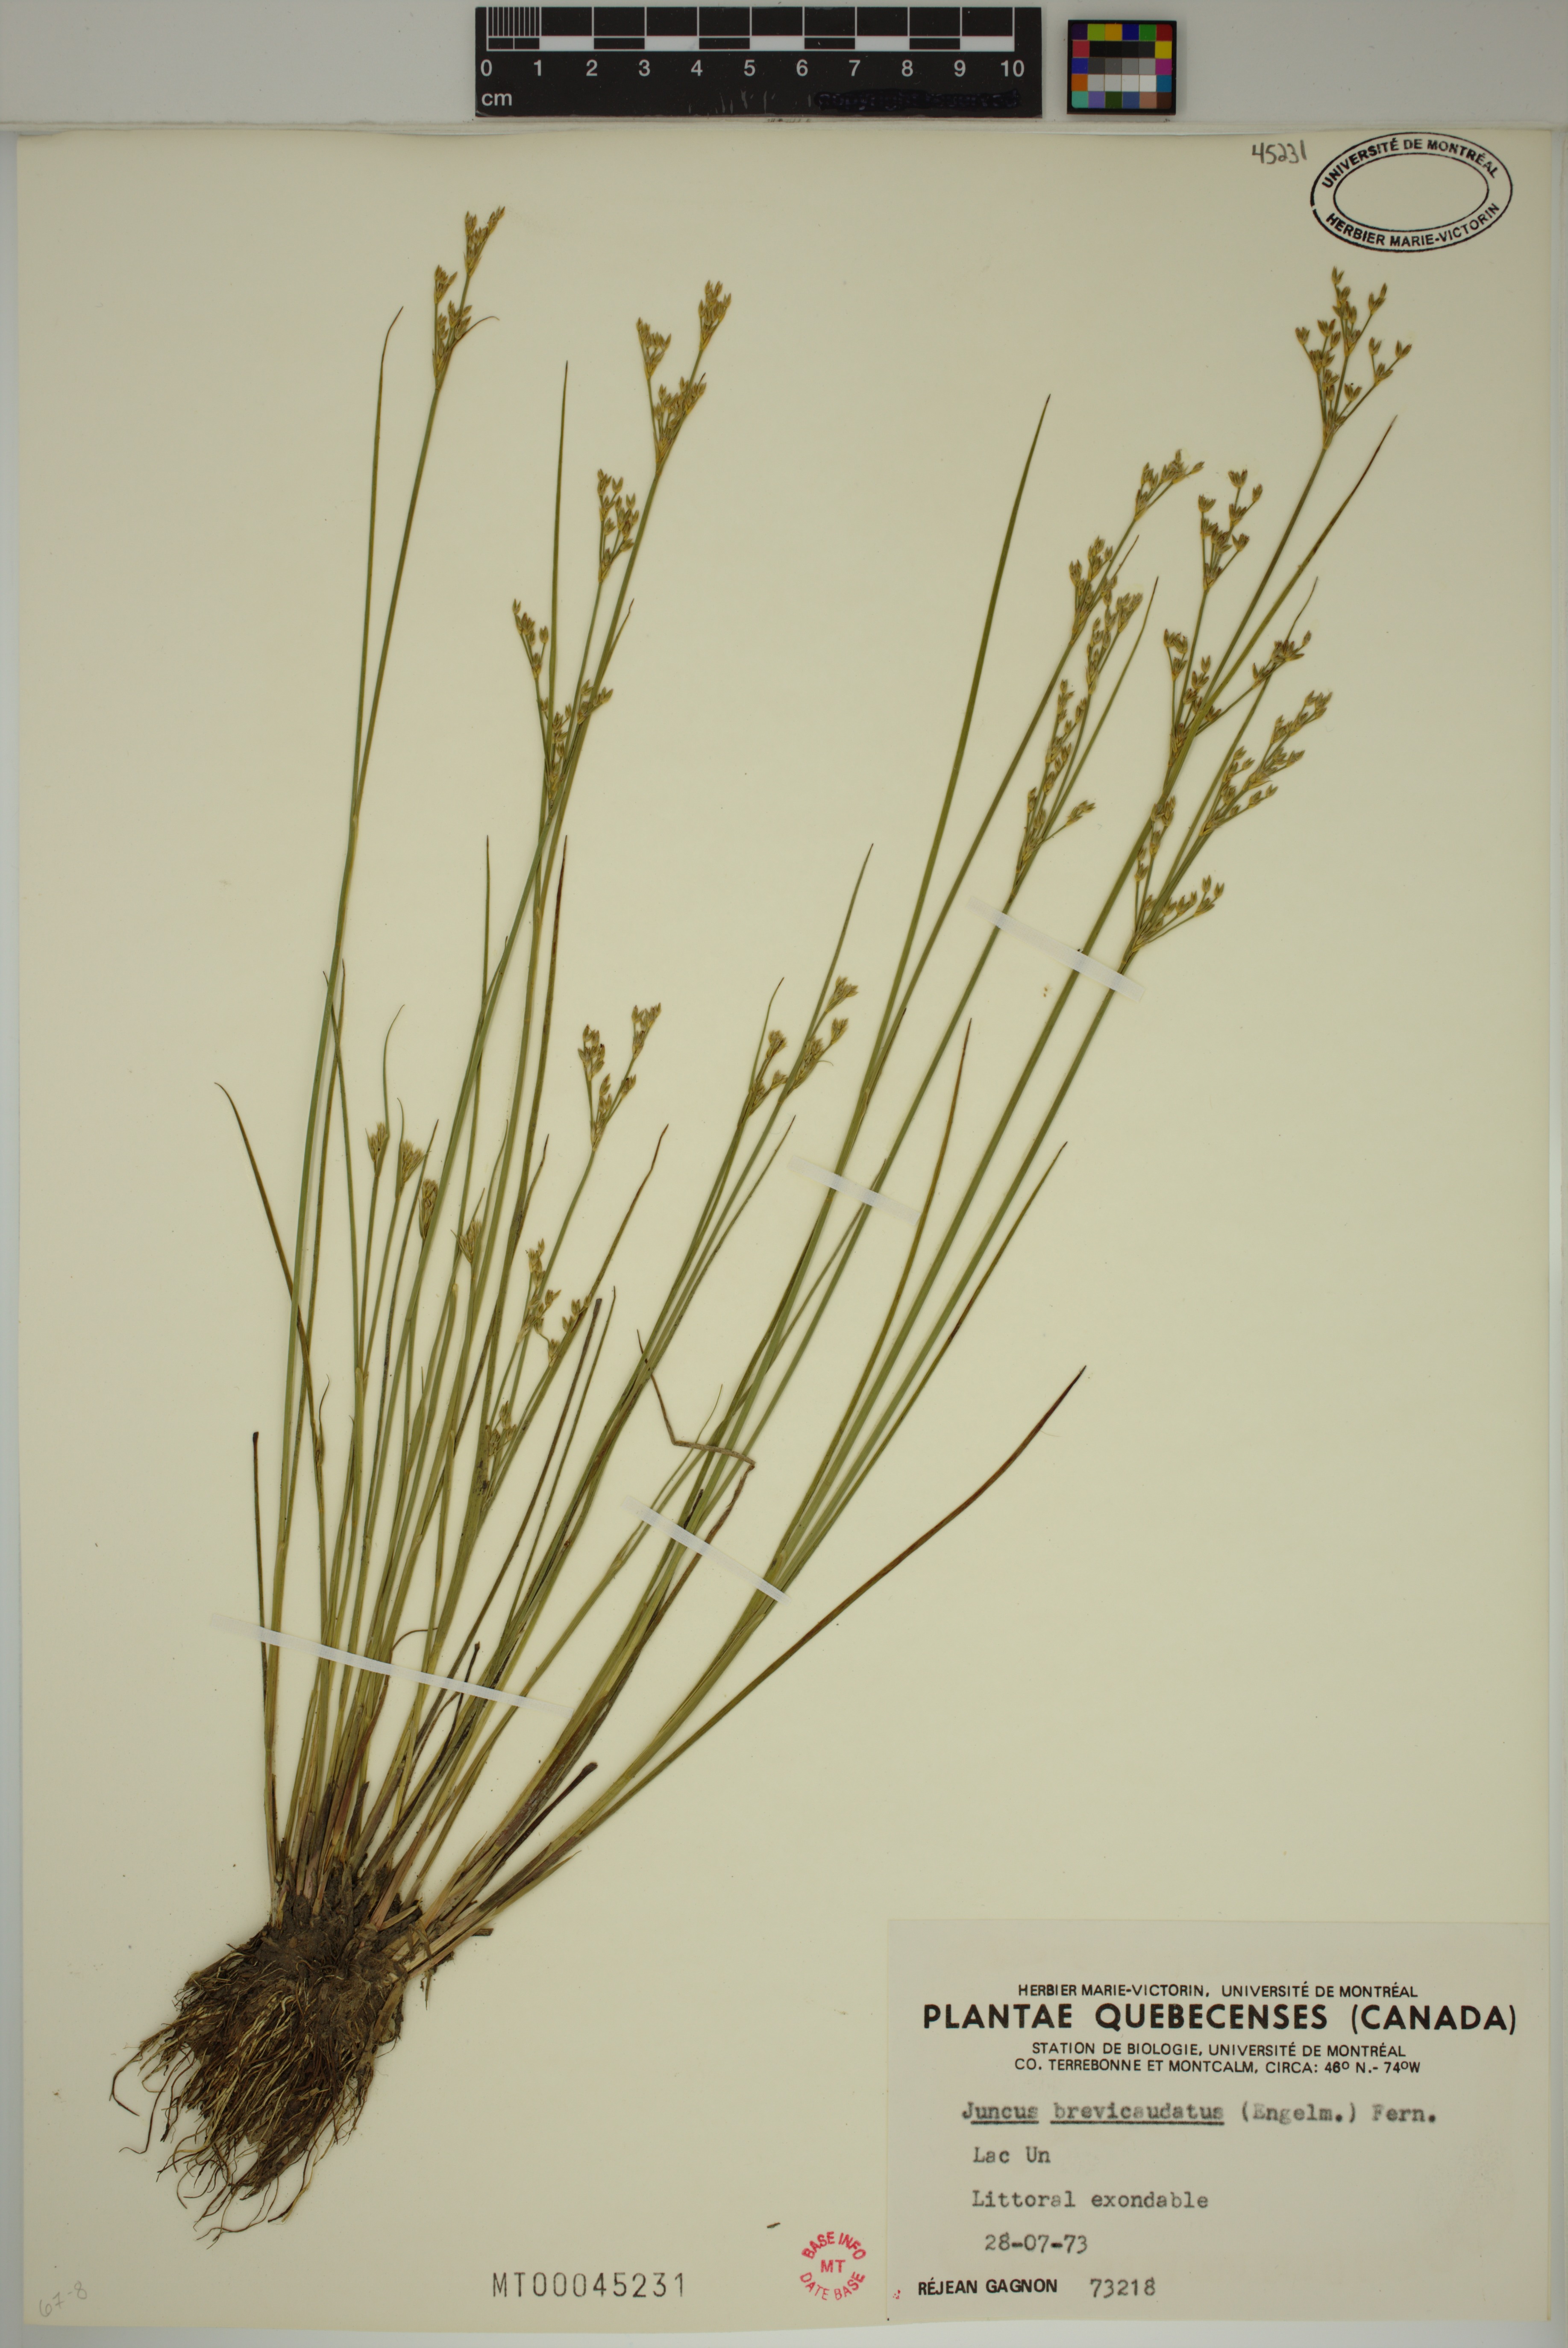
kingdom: Plantae
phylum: Tracheophyta
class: Liliopsida
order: Poales
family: Juncaceae
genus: Juncus
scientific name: Juncus brevicaudatus
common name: Narrow-panicle rush
